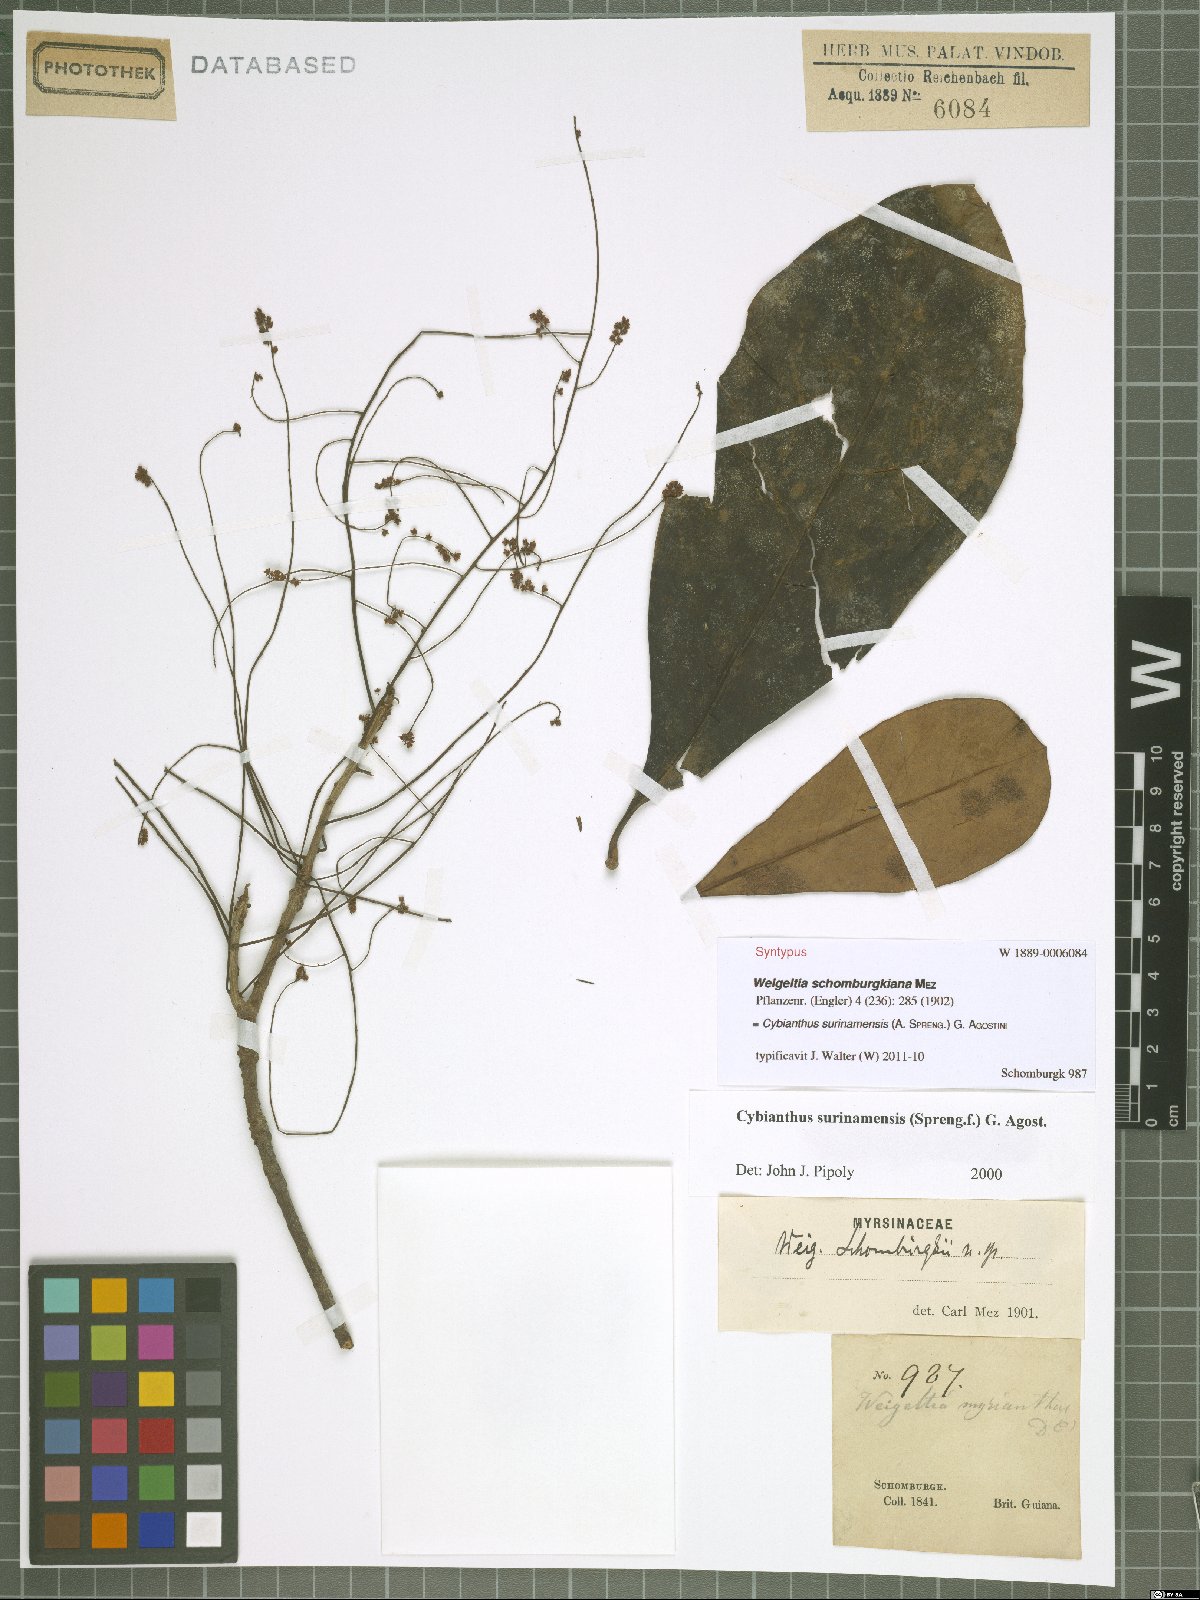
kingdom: Plantae
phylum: Tracheophyta
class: Magnoliopsida
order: Ericales
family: Primulaceae
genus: Cybianthus
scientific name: Cybianthus surinamensis
